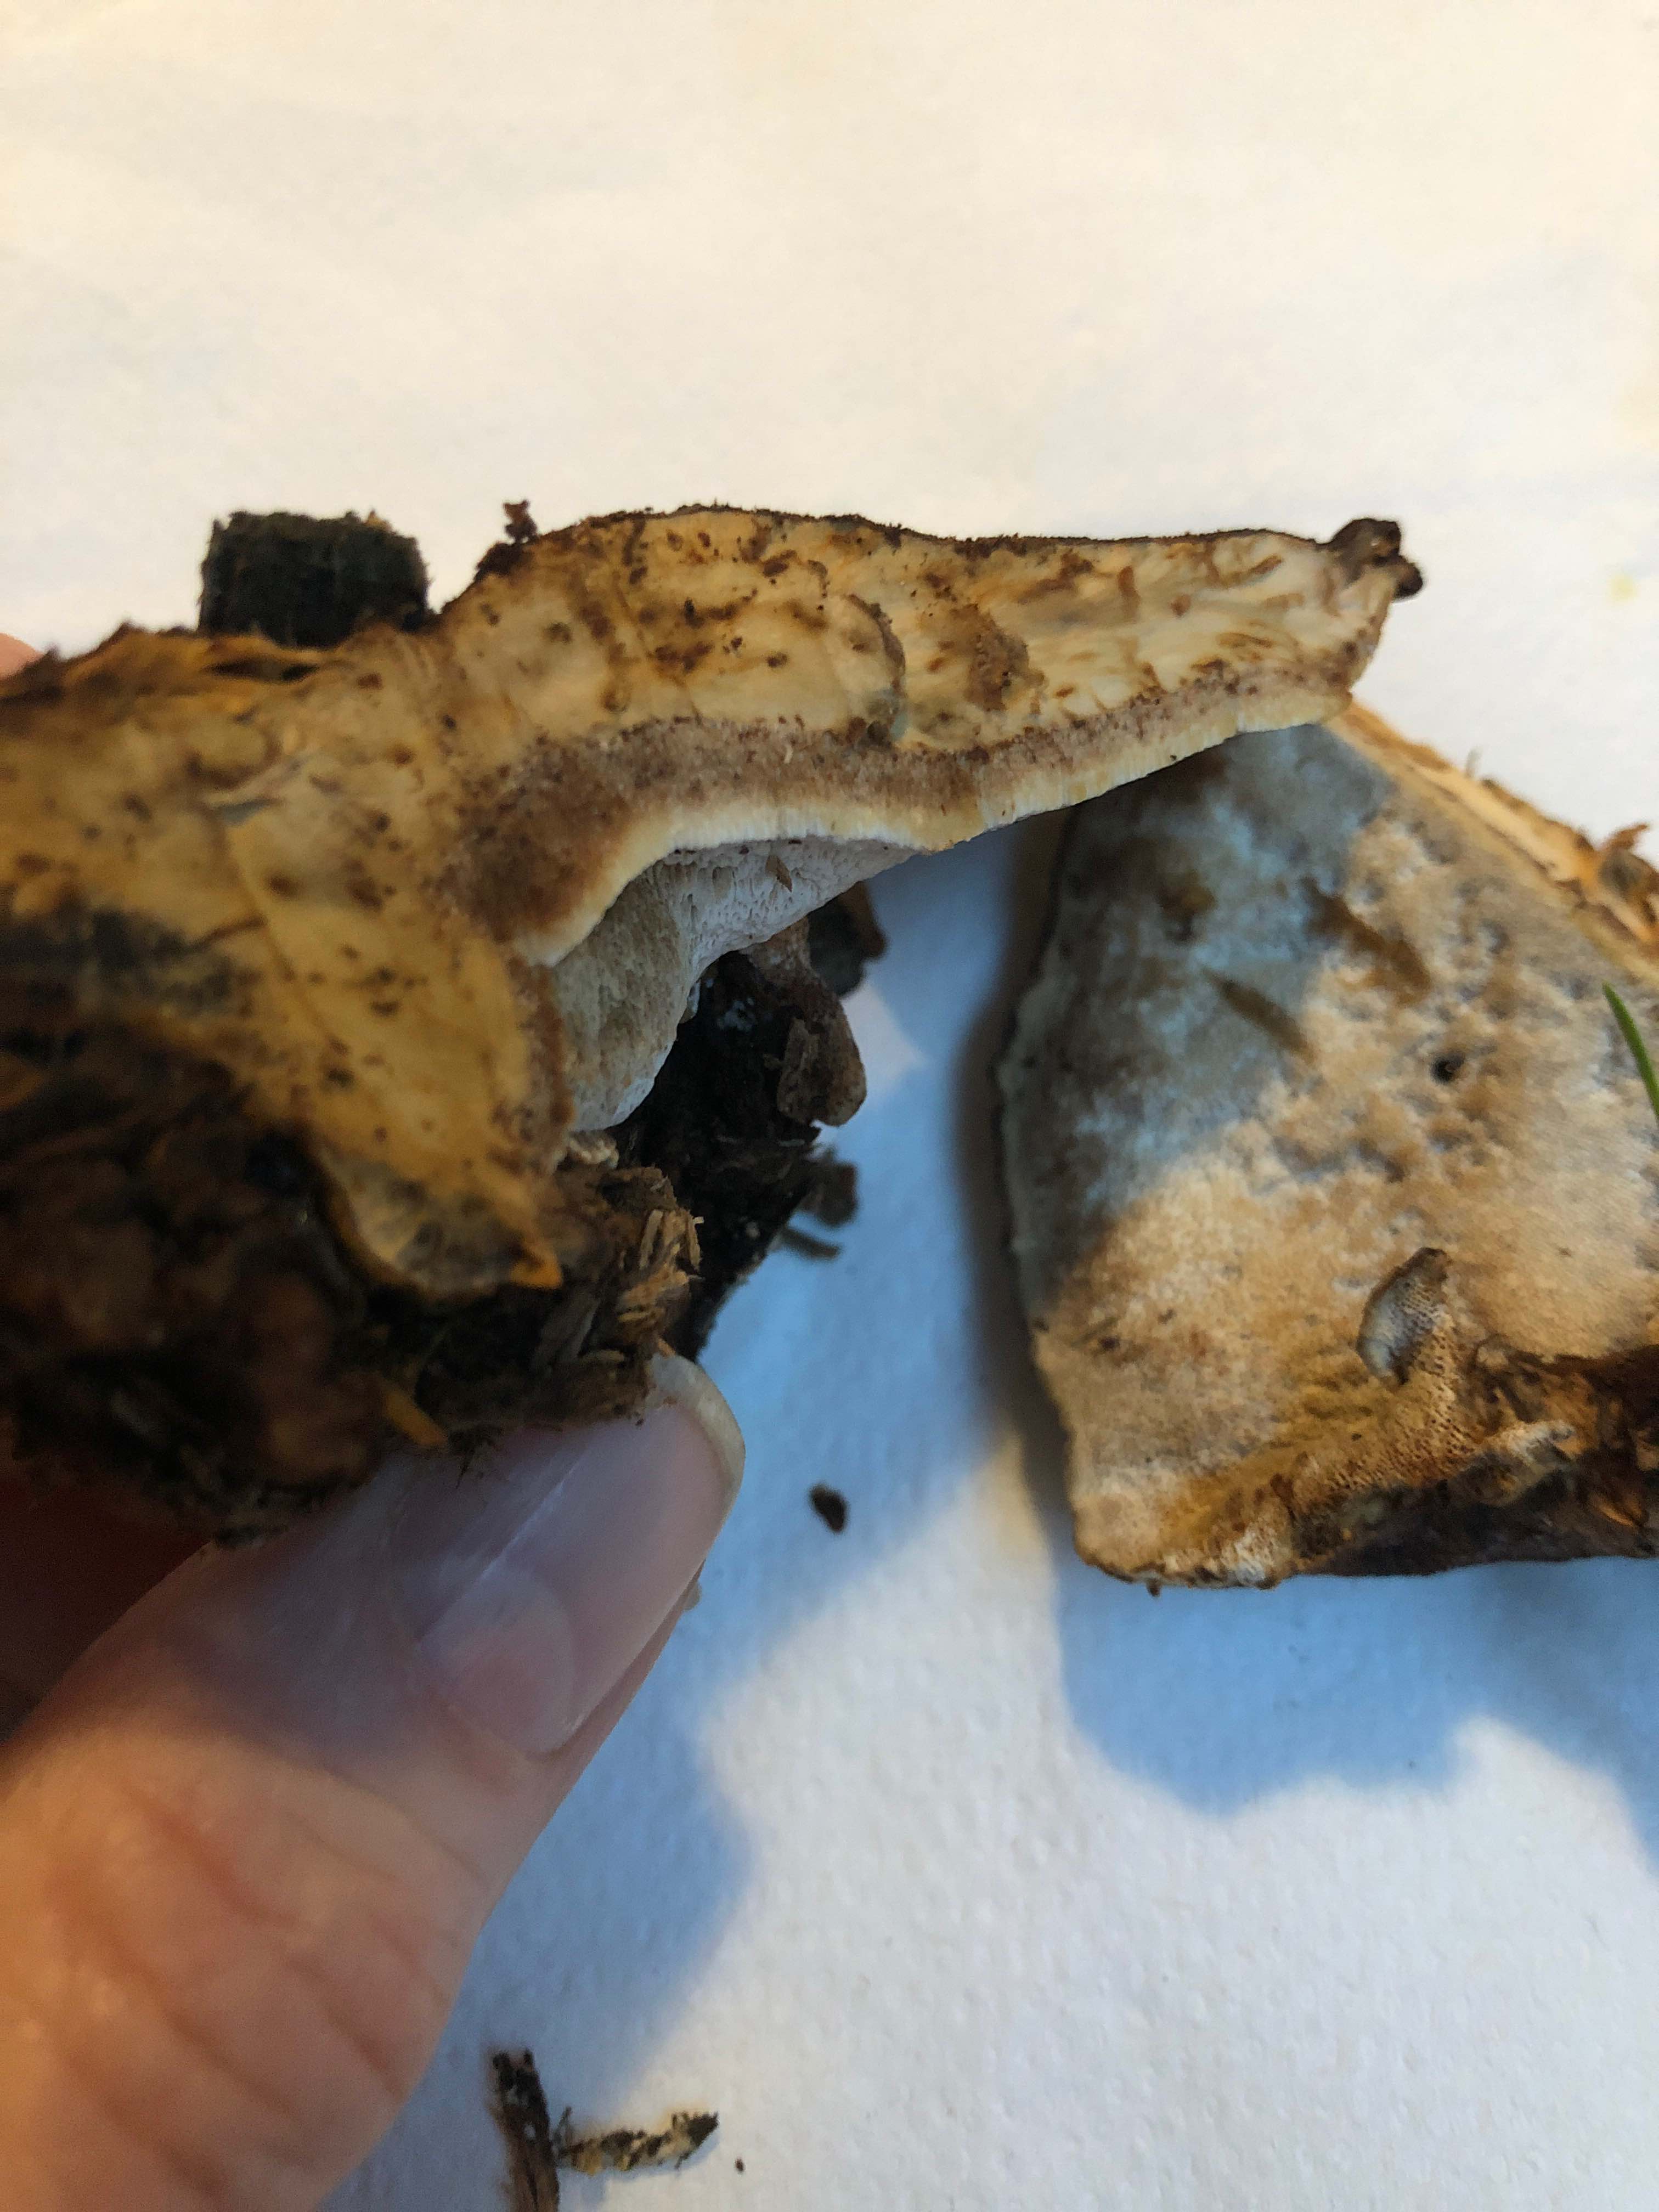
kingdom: Fungi
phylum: Basidiomycota
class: Agaricomycetes
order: Polyporales
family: Ischnodermataceae
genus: Ischnoderma
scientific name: Ischnoderma benzoinum
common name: gran-tjæreporesvamp
